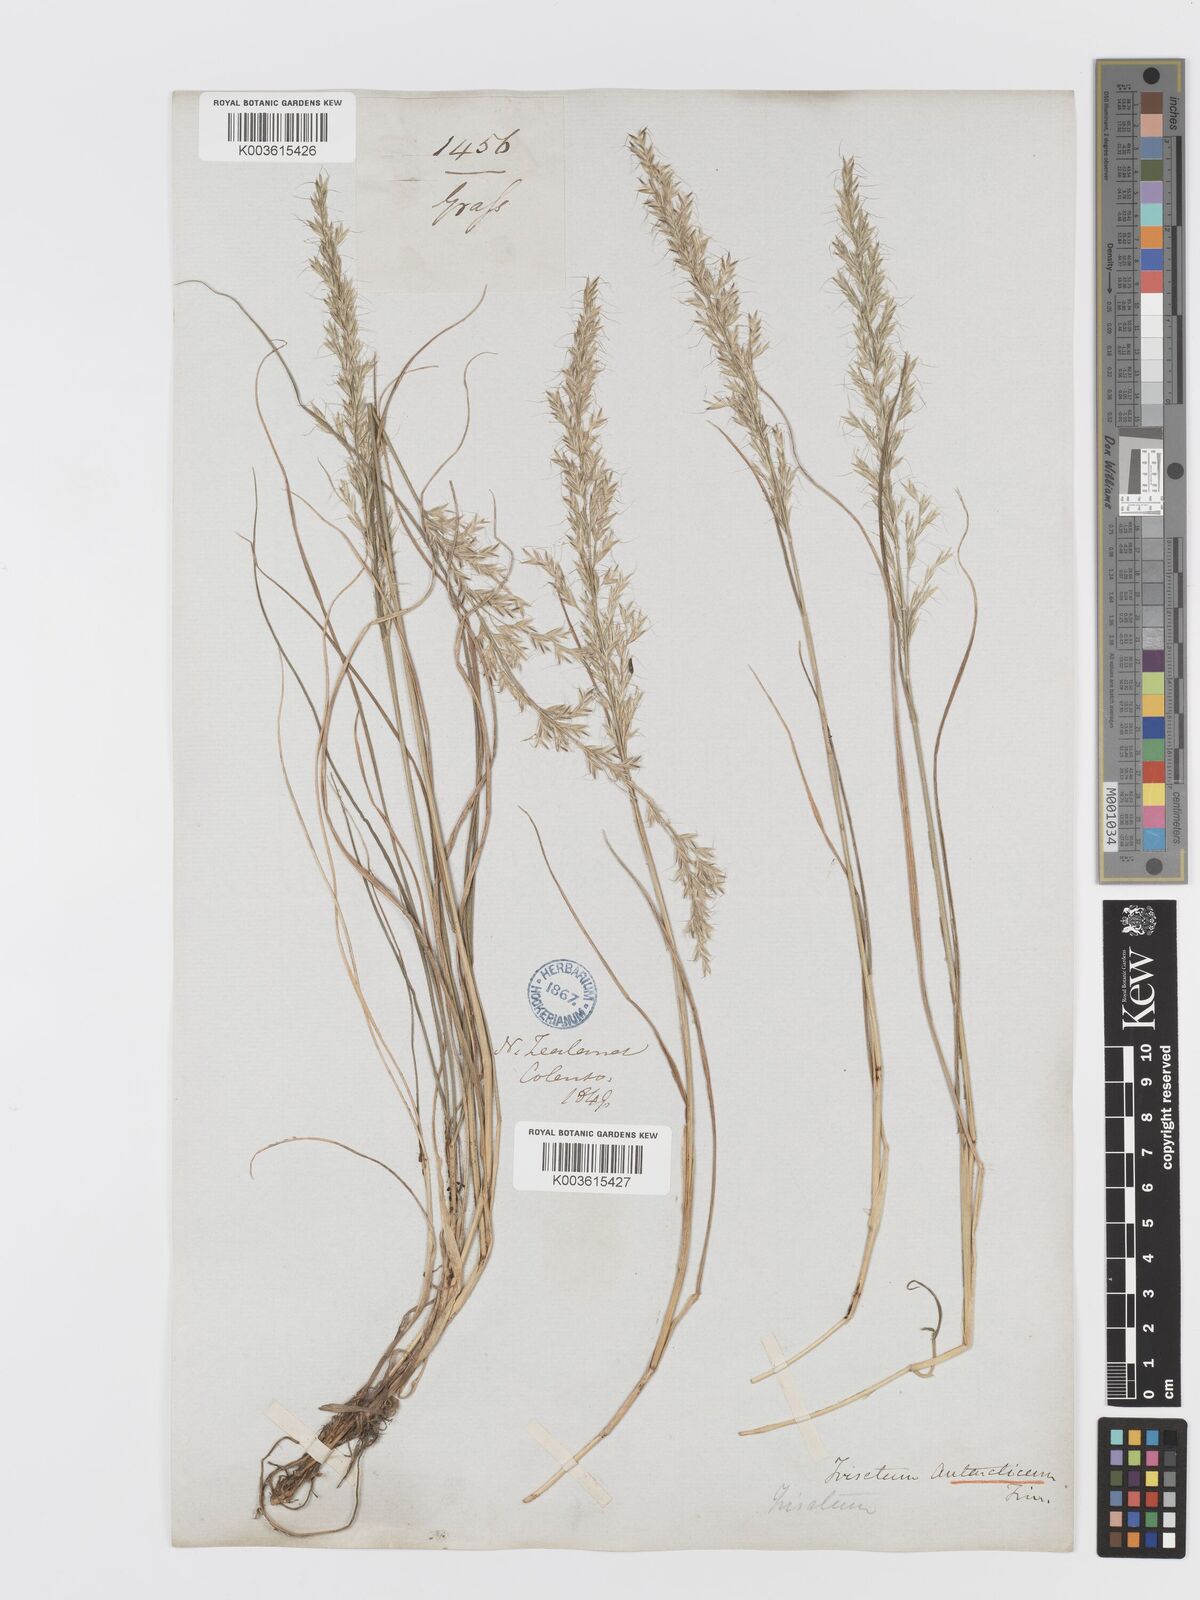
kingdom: Plantae
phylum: Tracheophyta
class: Liliopsida
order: Poales
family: Poaceae
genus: Koeleria
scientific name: Koeleria antarctica
